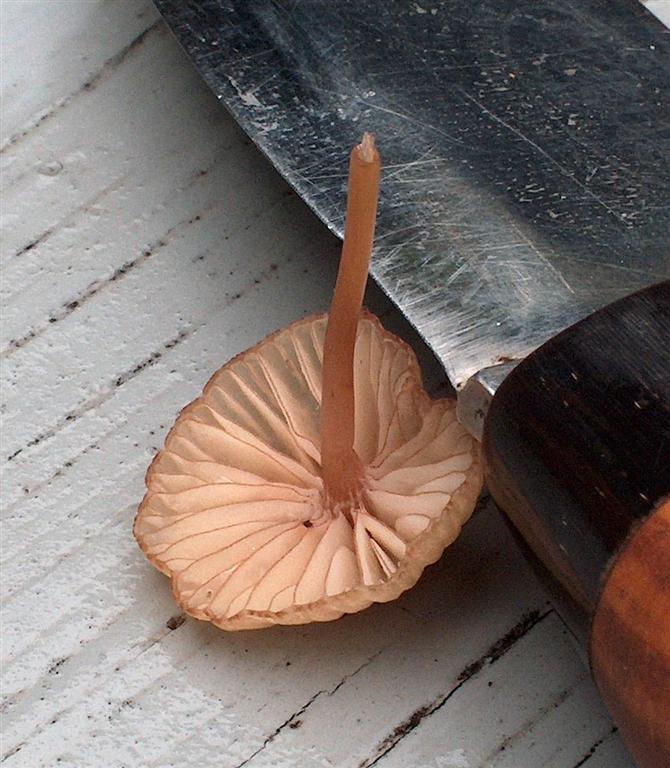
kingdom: Fungi
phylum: Basidiomycota
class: Agaricomycetes
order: Agaricales
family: Mycenaceae
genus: Mycena
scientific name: Mycena sanguinolenta
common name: rødmælket huesvamp
